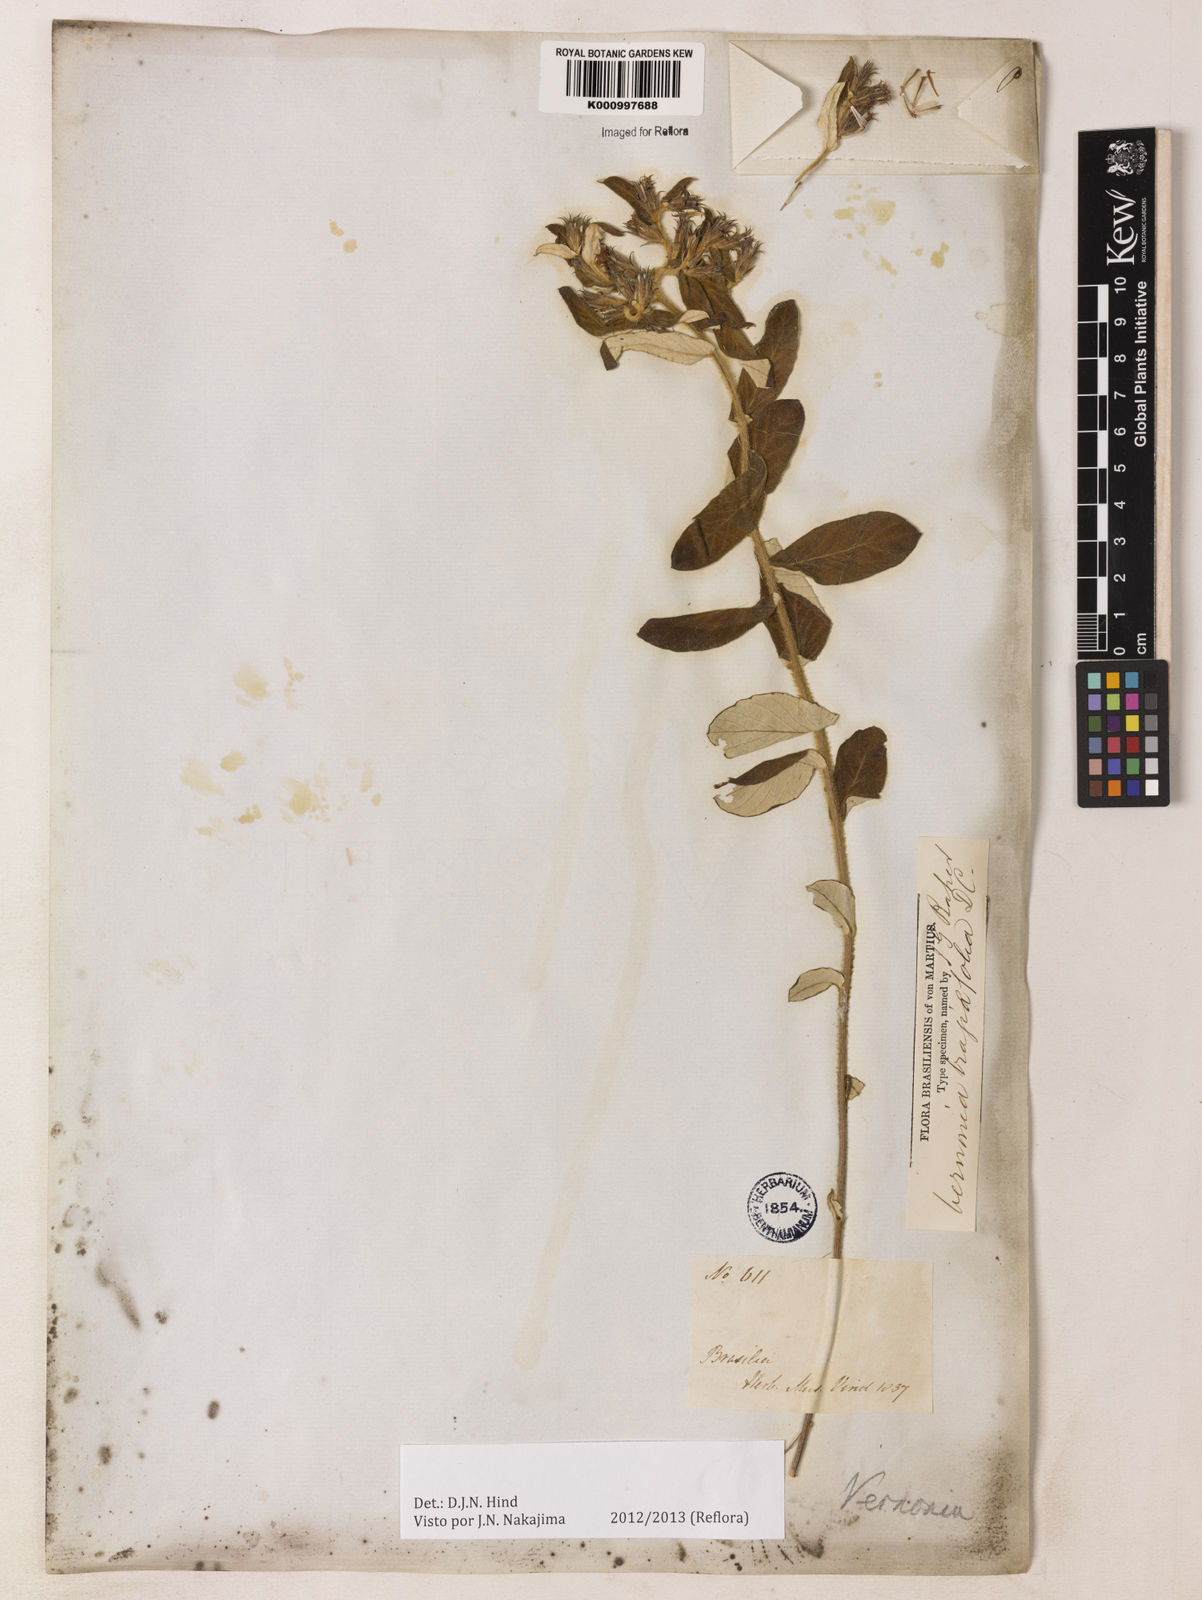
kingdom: Plantae
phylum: Tracheophyta
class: Magnoliopsida
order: Asterales
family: Asteraceae
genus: Vernonia
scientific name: Vernonia
